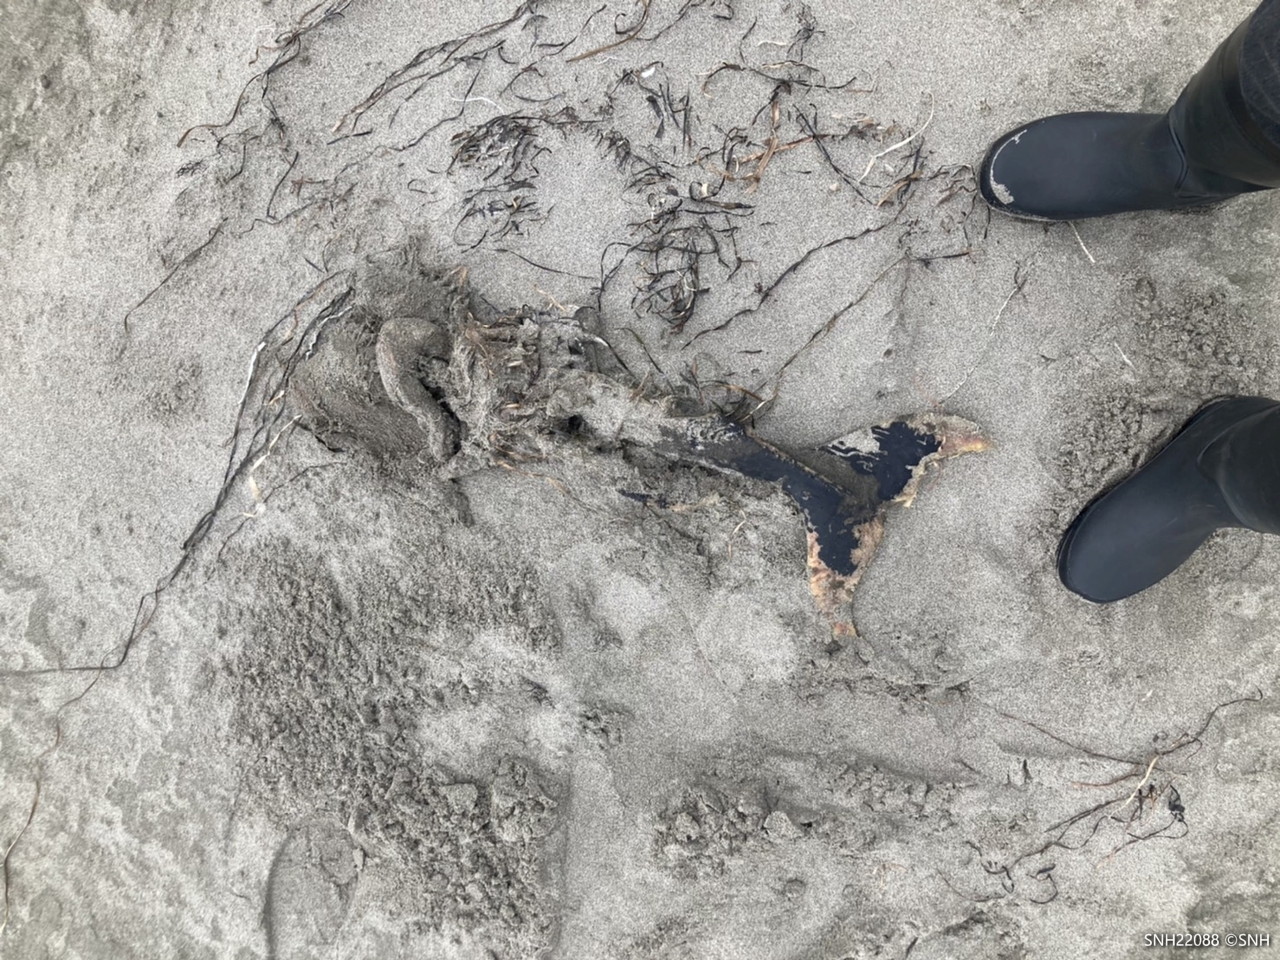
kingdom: Animalia
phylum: Chordata
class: Mammalia
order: Cetacea
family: Phocoenidae
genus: Phocoena
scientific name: Phocoena phocoena
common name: Harbour porpoise
